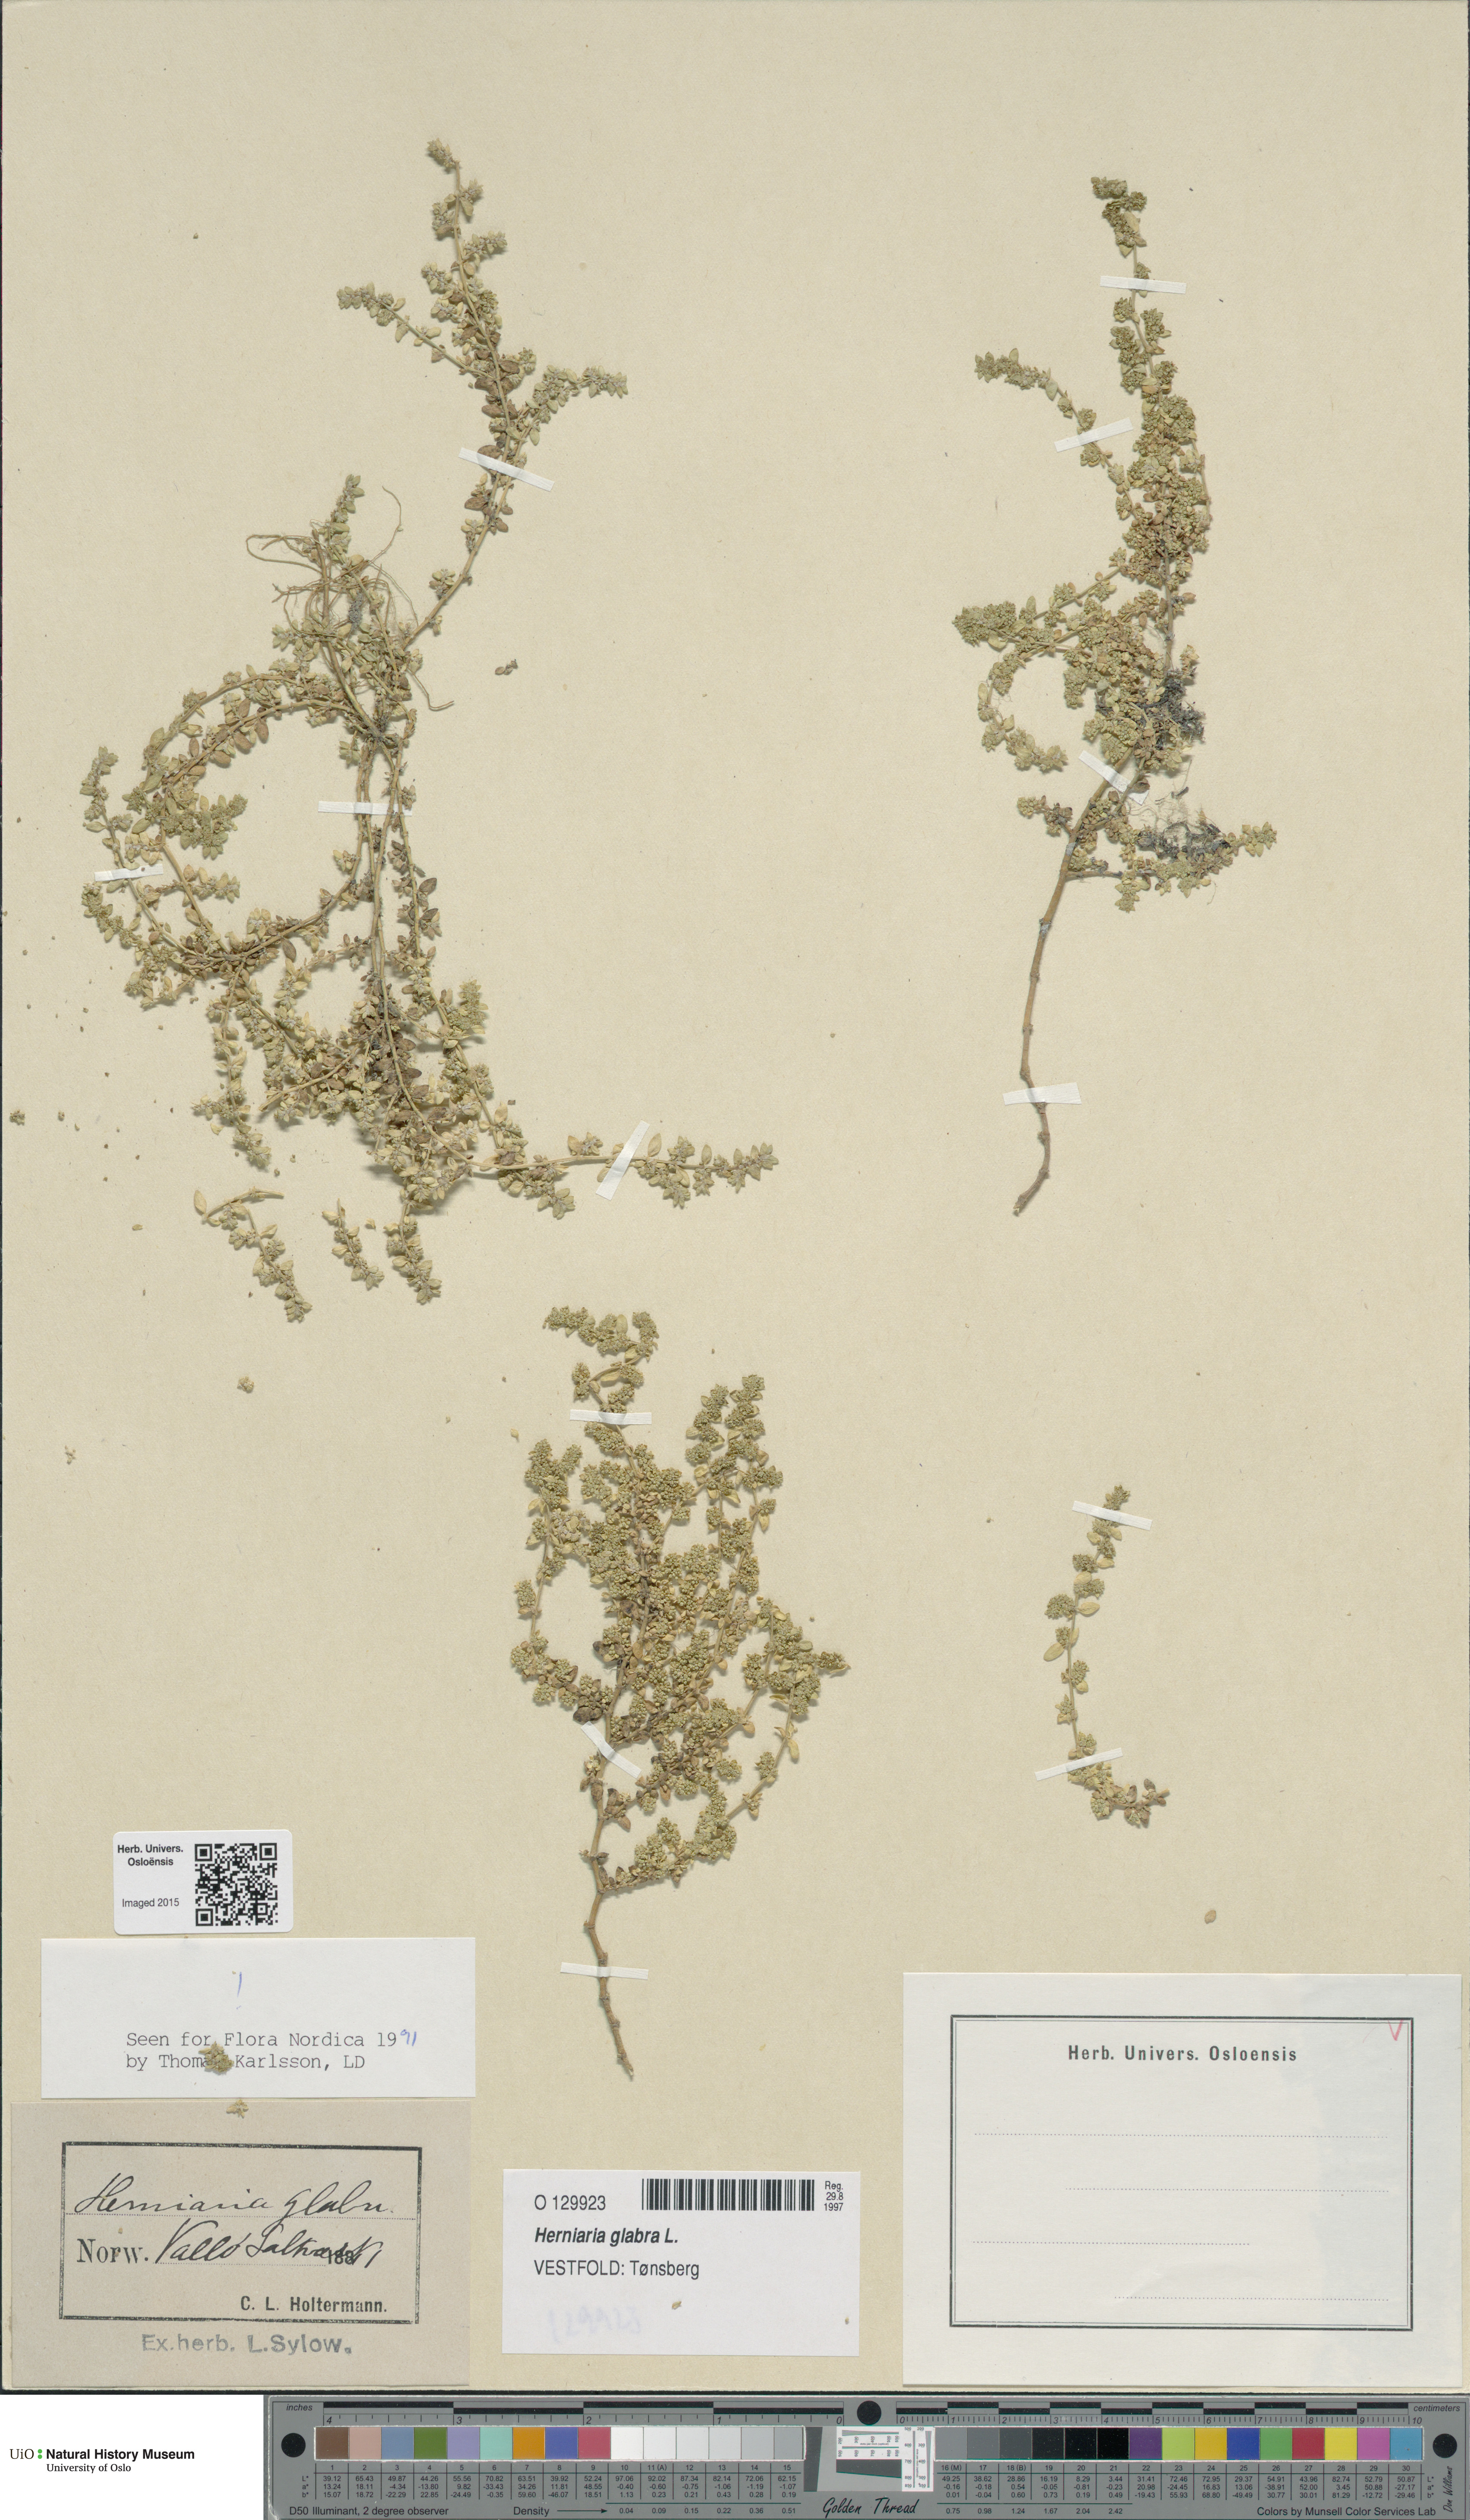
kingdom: Plantae
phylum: Tracheophyta
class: Magnoliopsida
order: Caryophyllales
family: Caryophyllaceae
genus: Herniaria
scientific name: Herniaria glabra
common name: Smooth rupturewort
